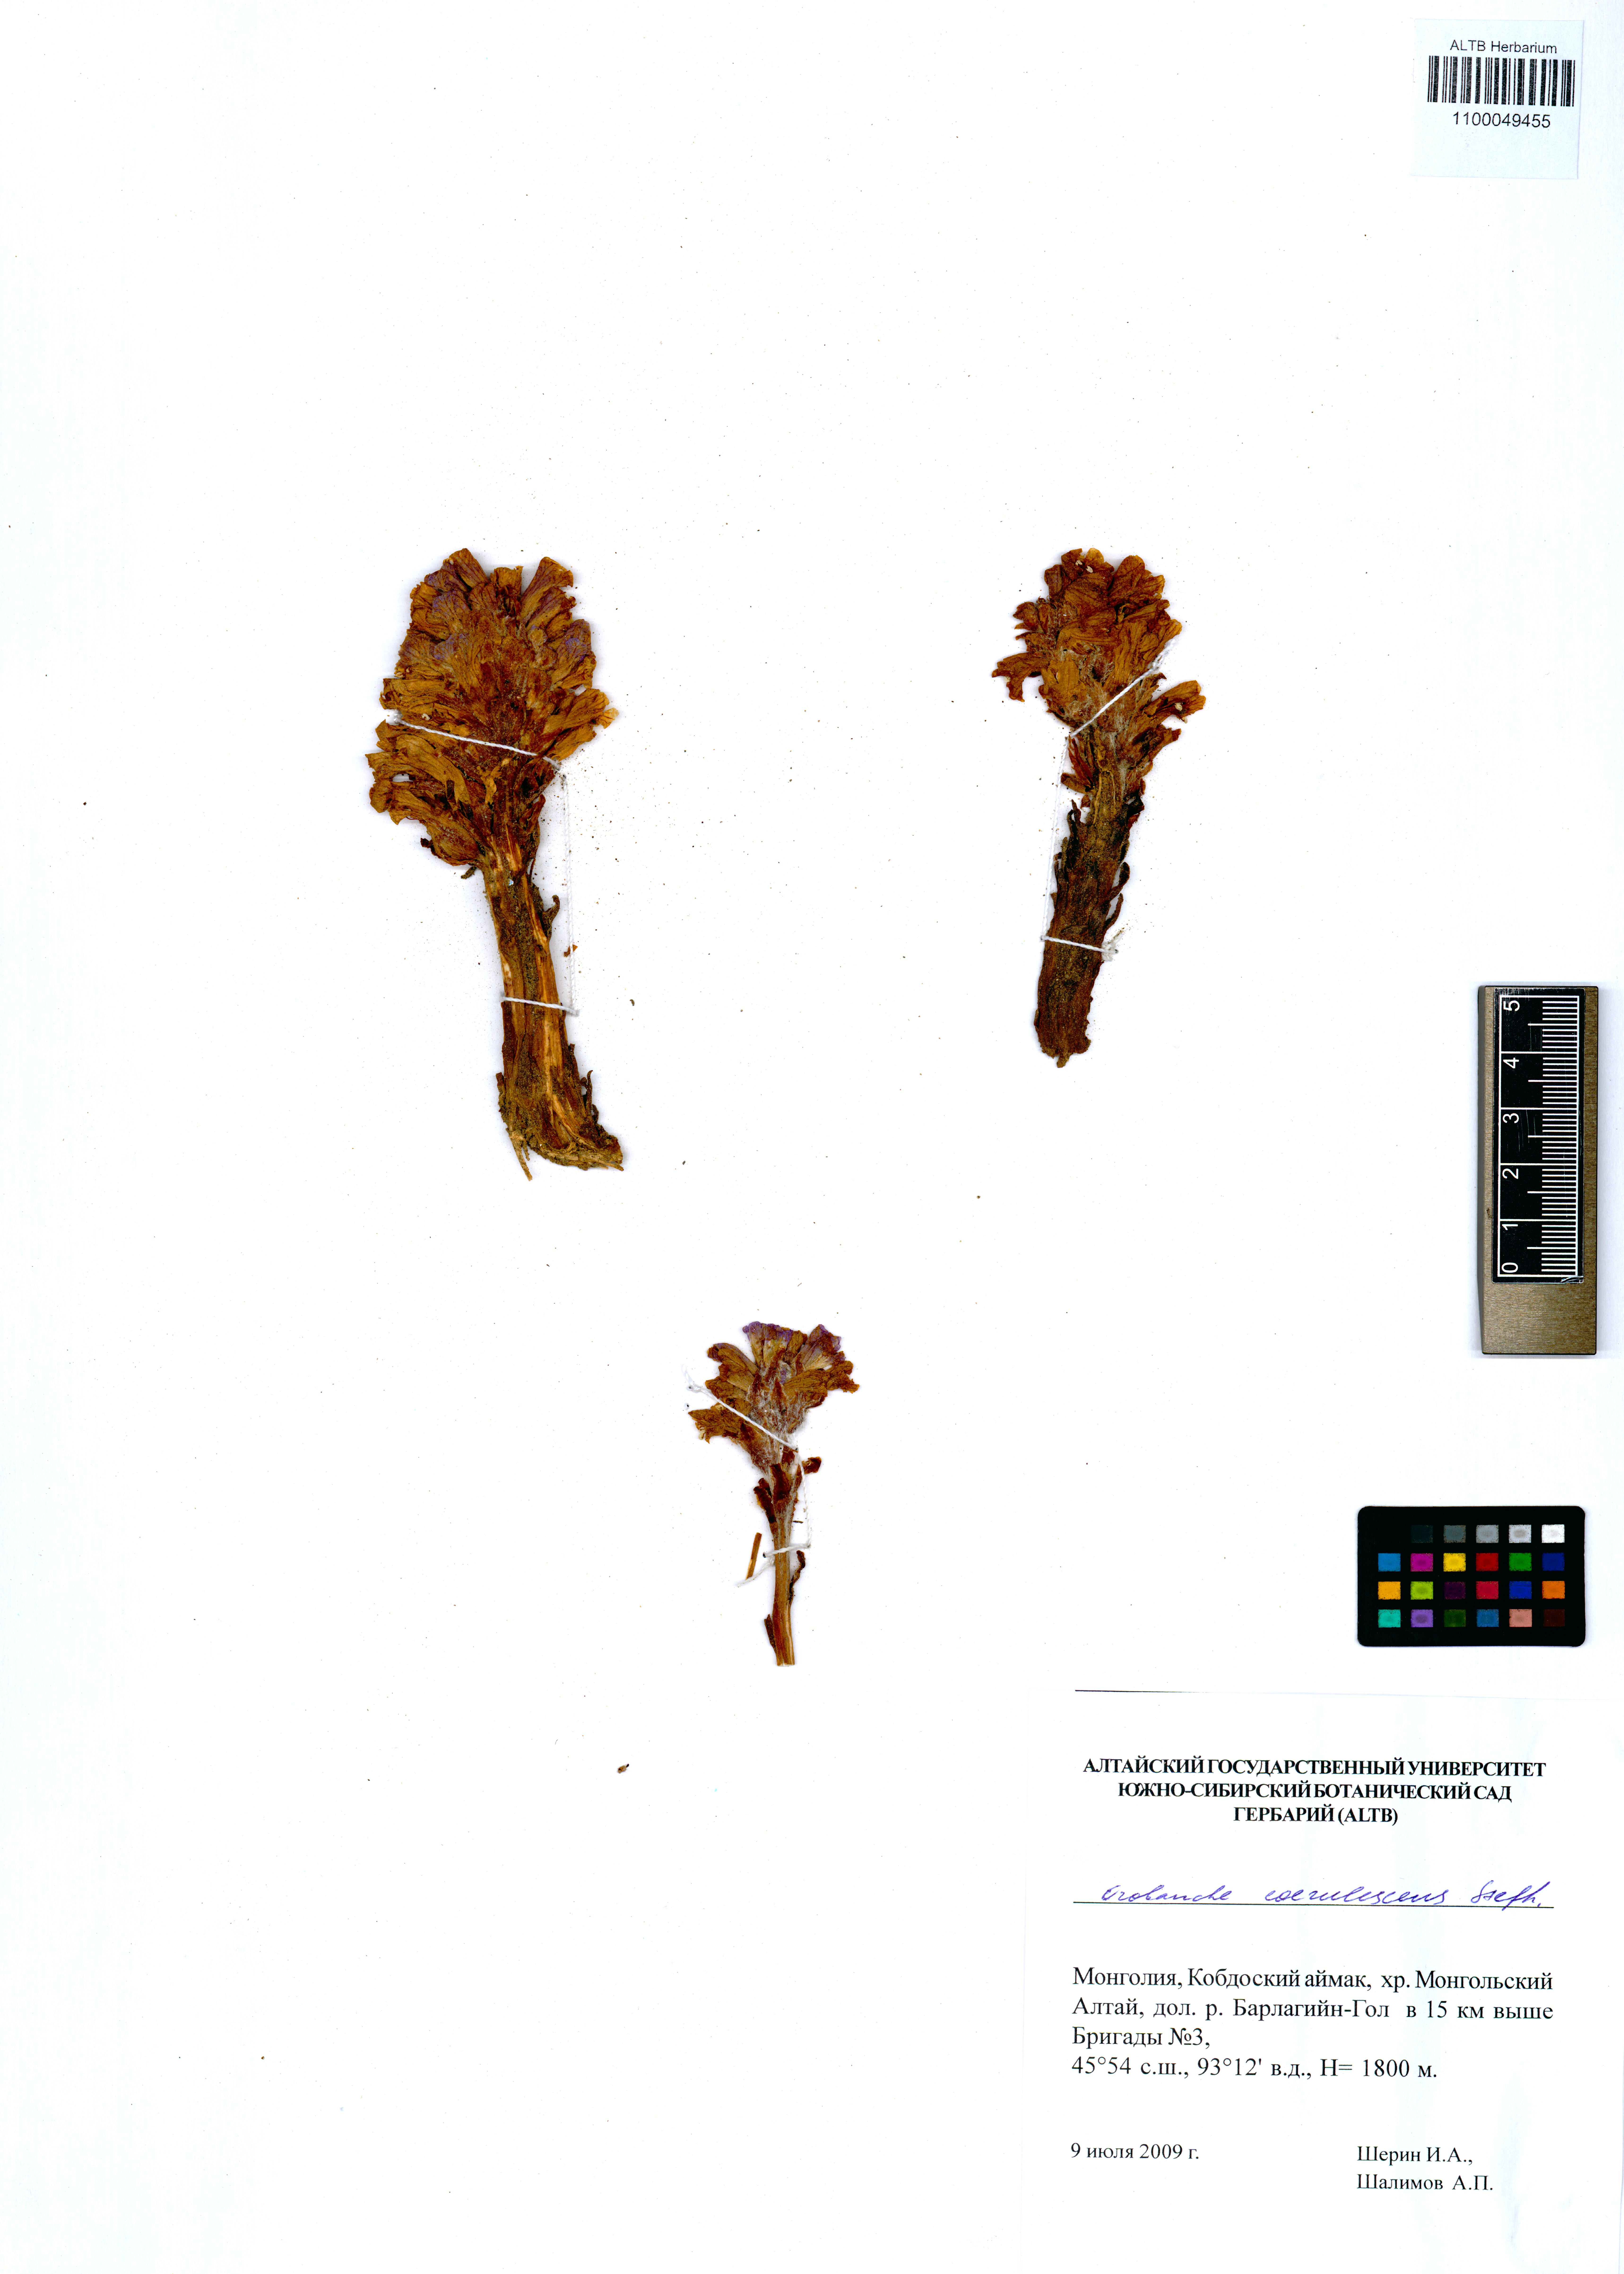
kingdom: Plantae
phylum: Tracheophyta
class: Magnoliopsida
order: Lamiales
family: Orobanchaceae
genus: Orobanche
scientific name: Orobanche coerulescens
